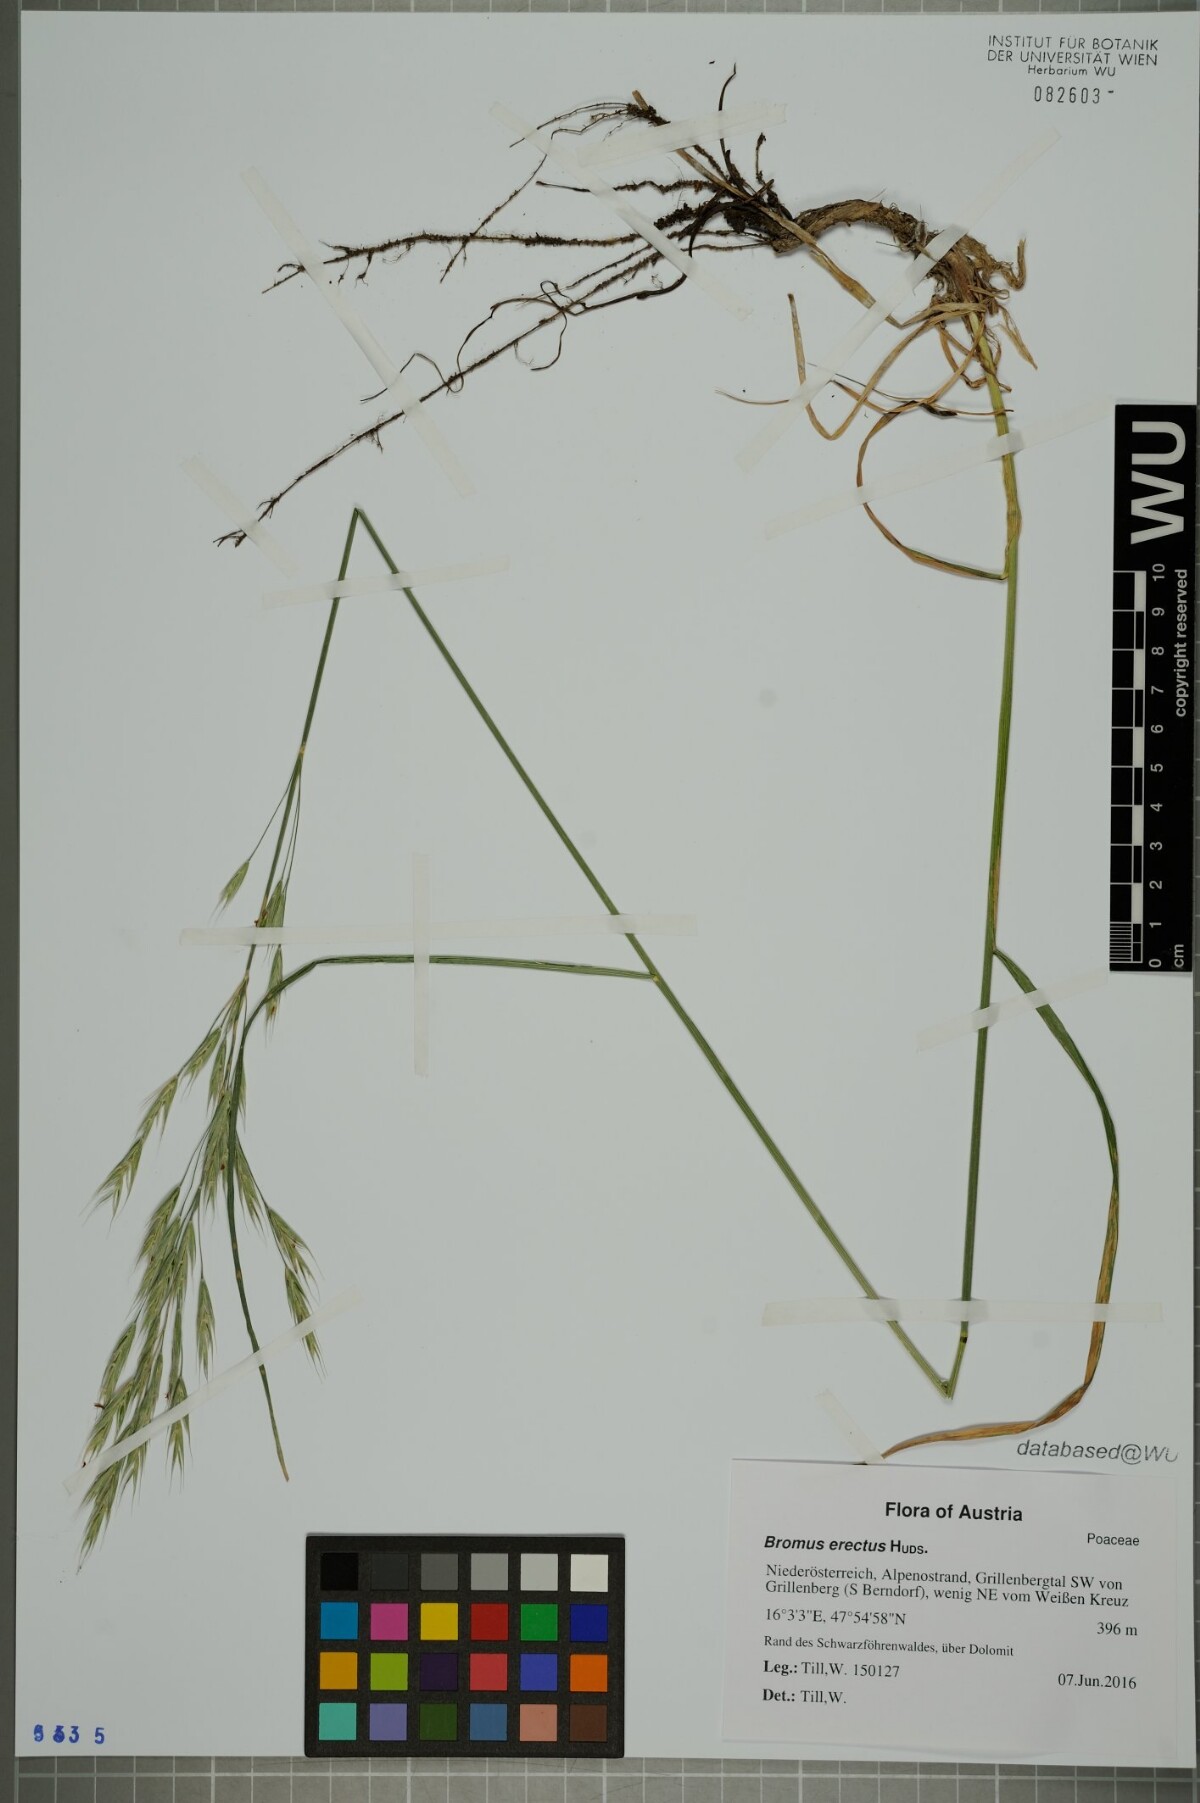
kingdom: Plantae
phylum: Tracheophyta
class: Liliopsida
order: Poales
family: Poaceae
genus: Bromus
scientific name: Bromus erectus
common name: Erect brome
